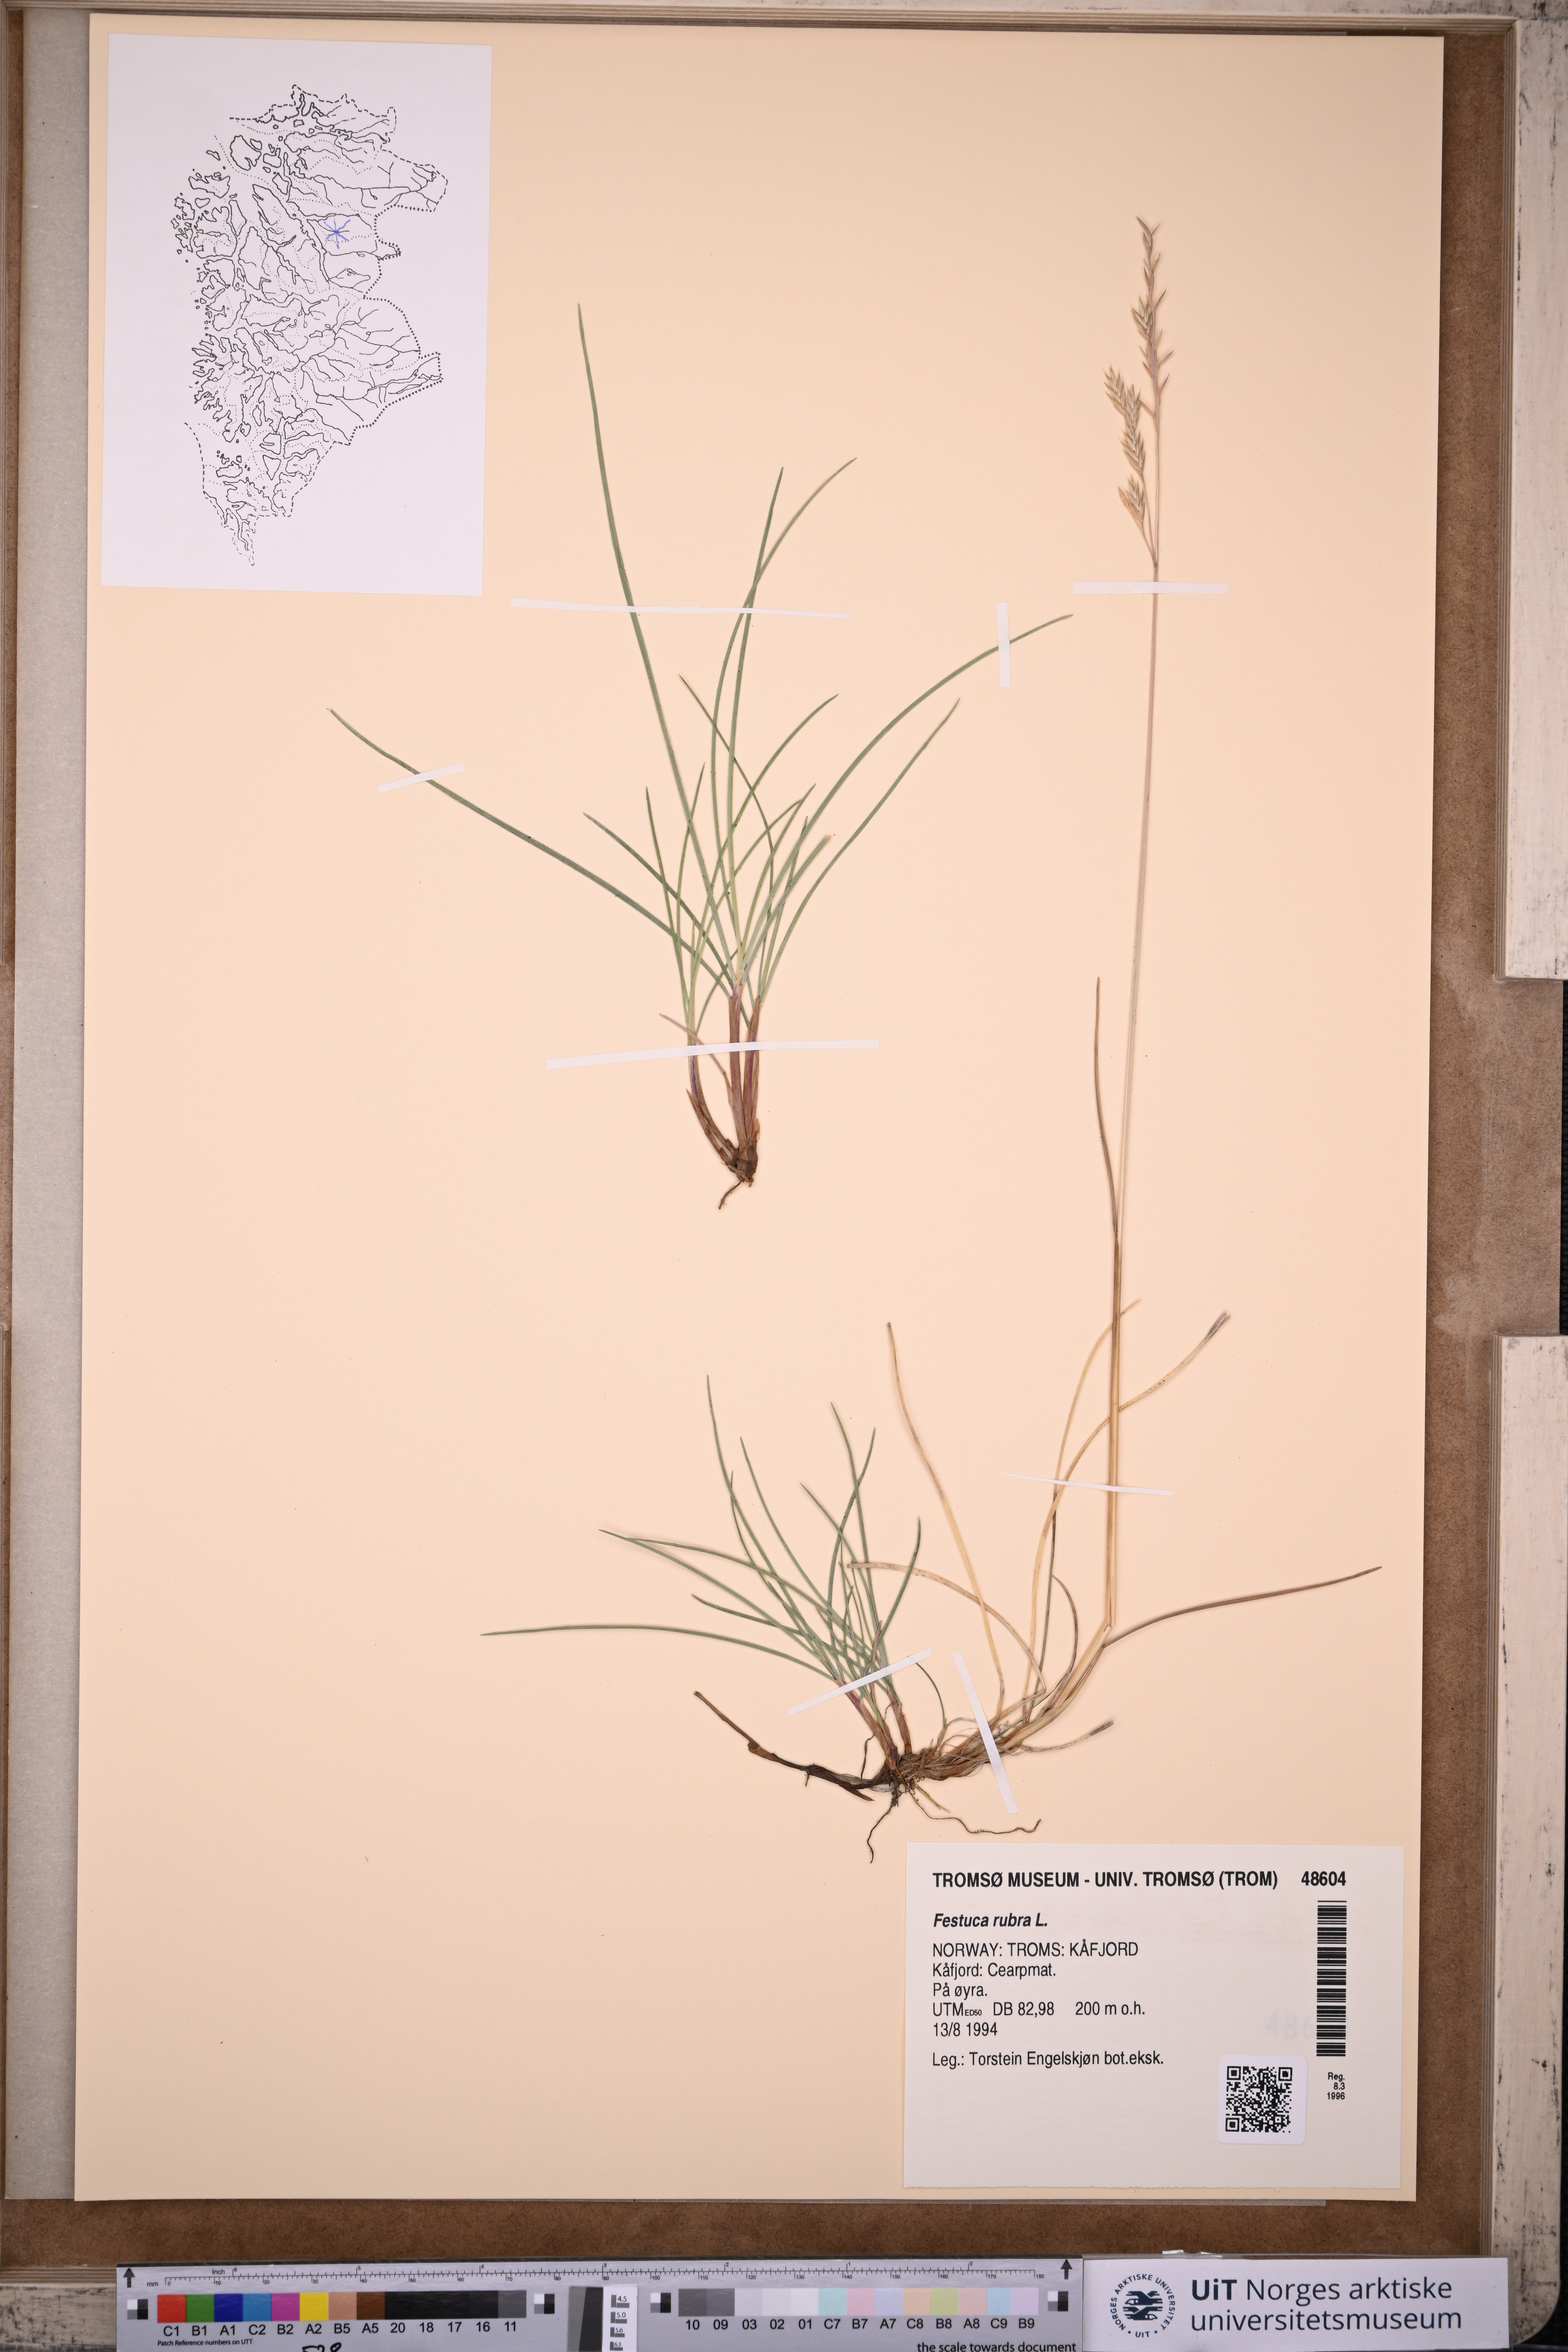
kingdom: Plantae
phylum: Tracheophyta
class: Liliopsida
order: Poales
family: Poaceae
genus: Festuca
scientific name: Festuca rubra
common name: Red fescue
